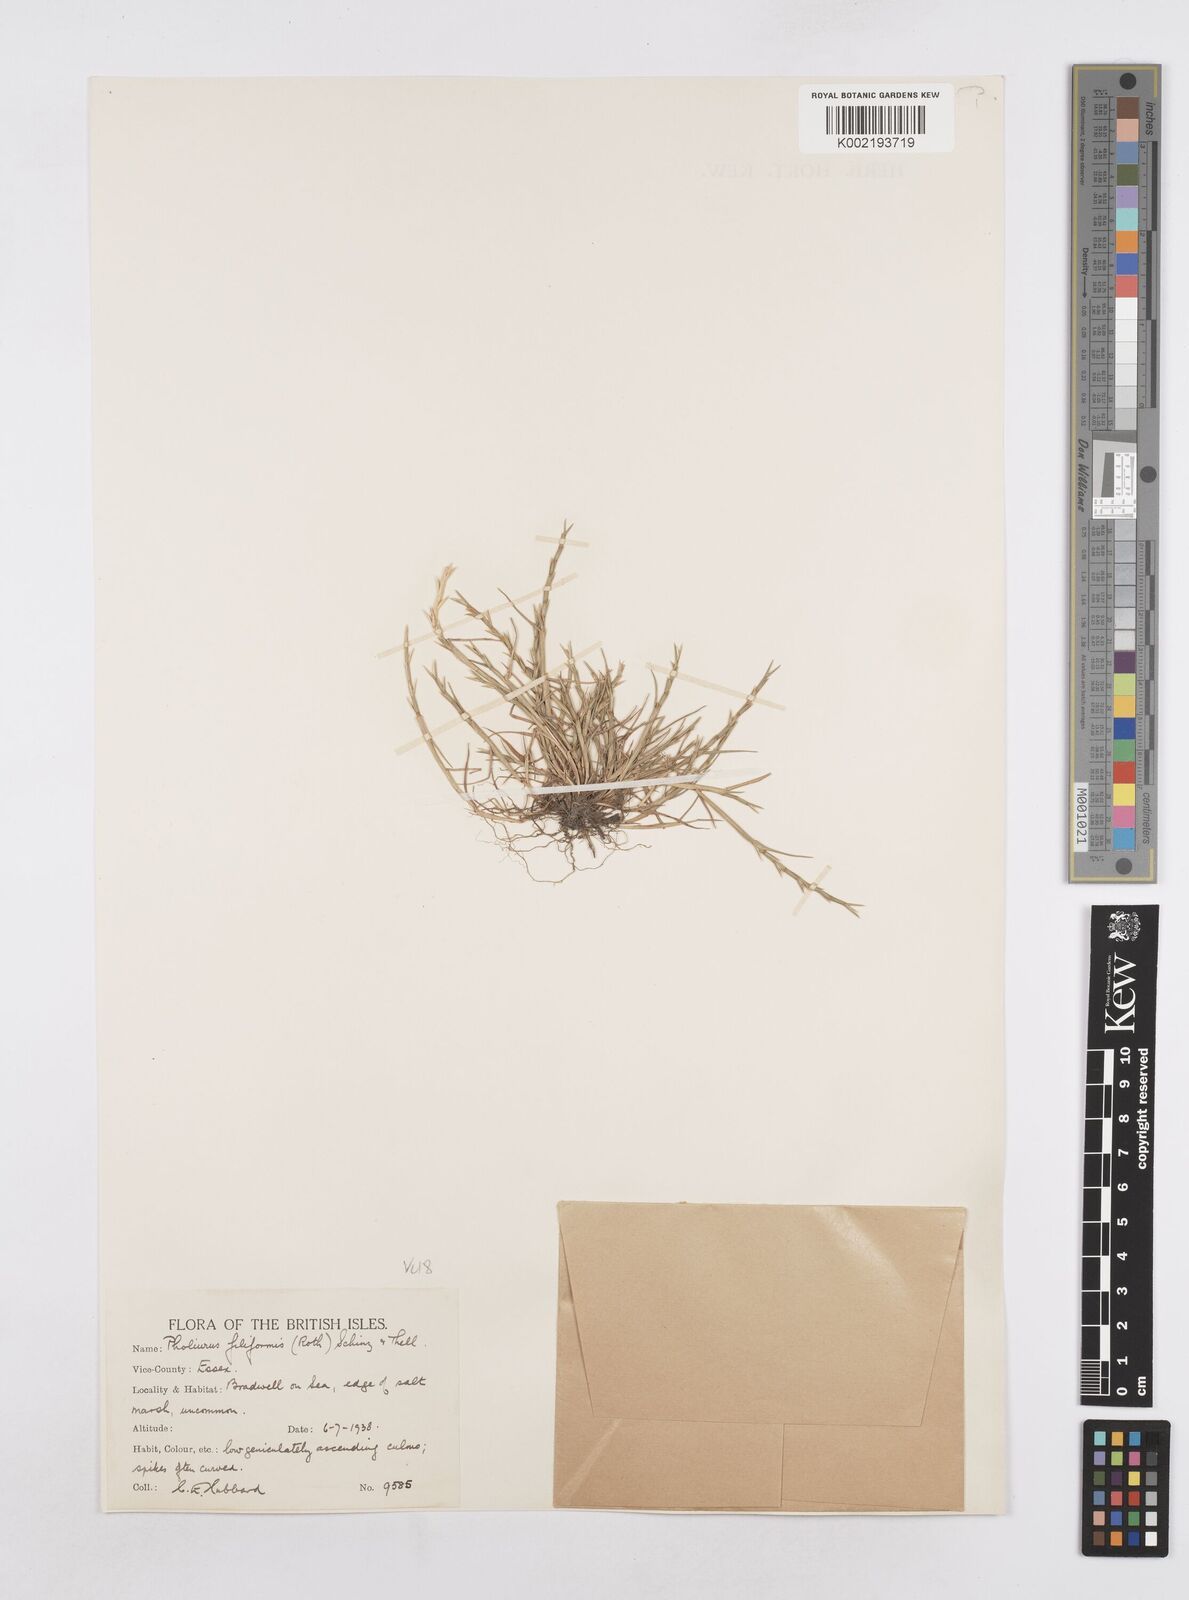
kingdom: Plantae
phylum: Tracheophyta
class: Liliopsida
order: Poales
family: Poaceae
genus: Parapholis
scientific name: Parapholis strigosa
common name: Hard-grass
